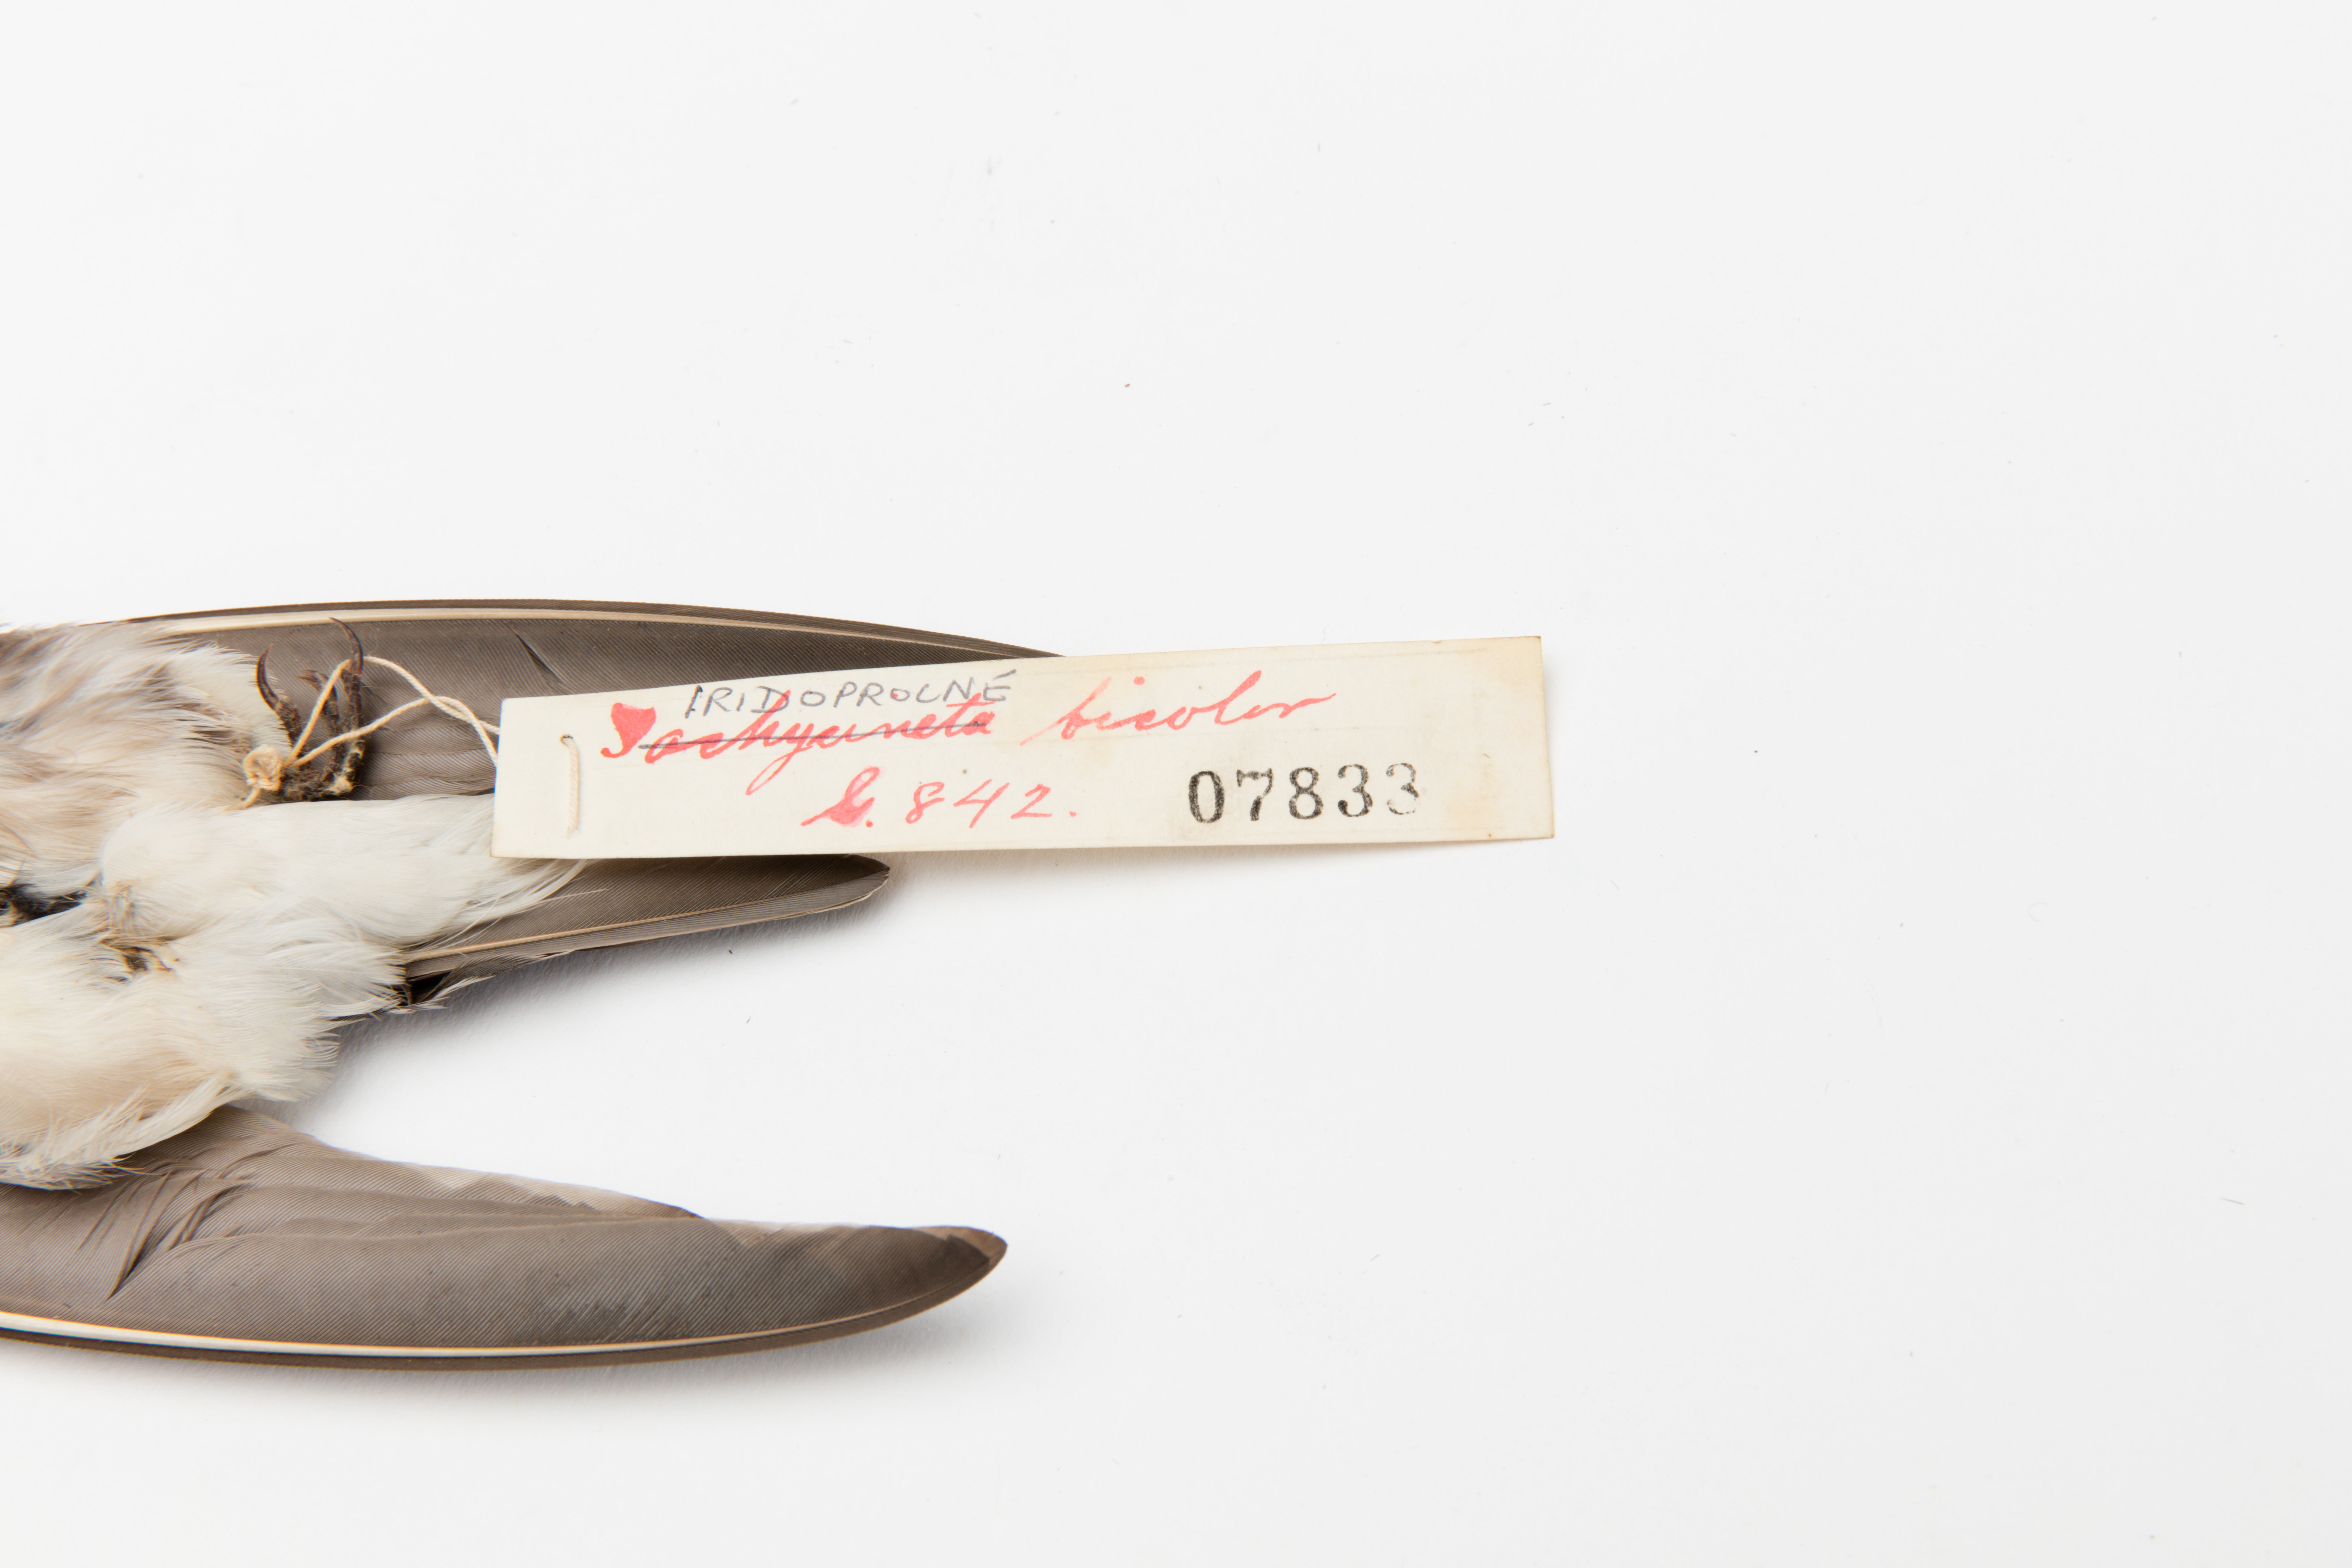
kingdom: Animalia
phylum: Chordata
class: Aves
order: Passeriformes
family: Hirundinidae
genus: Tachycineta
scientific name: Tachycineta bicolor
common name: Tree swallow
